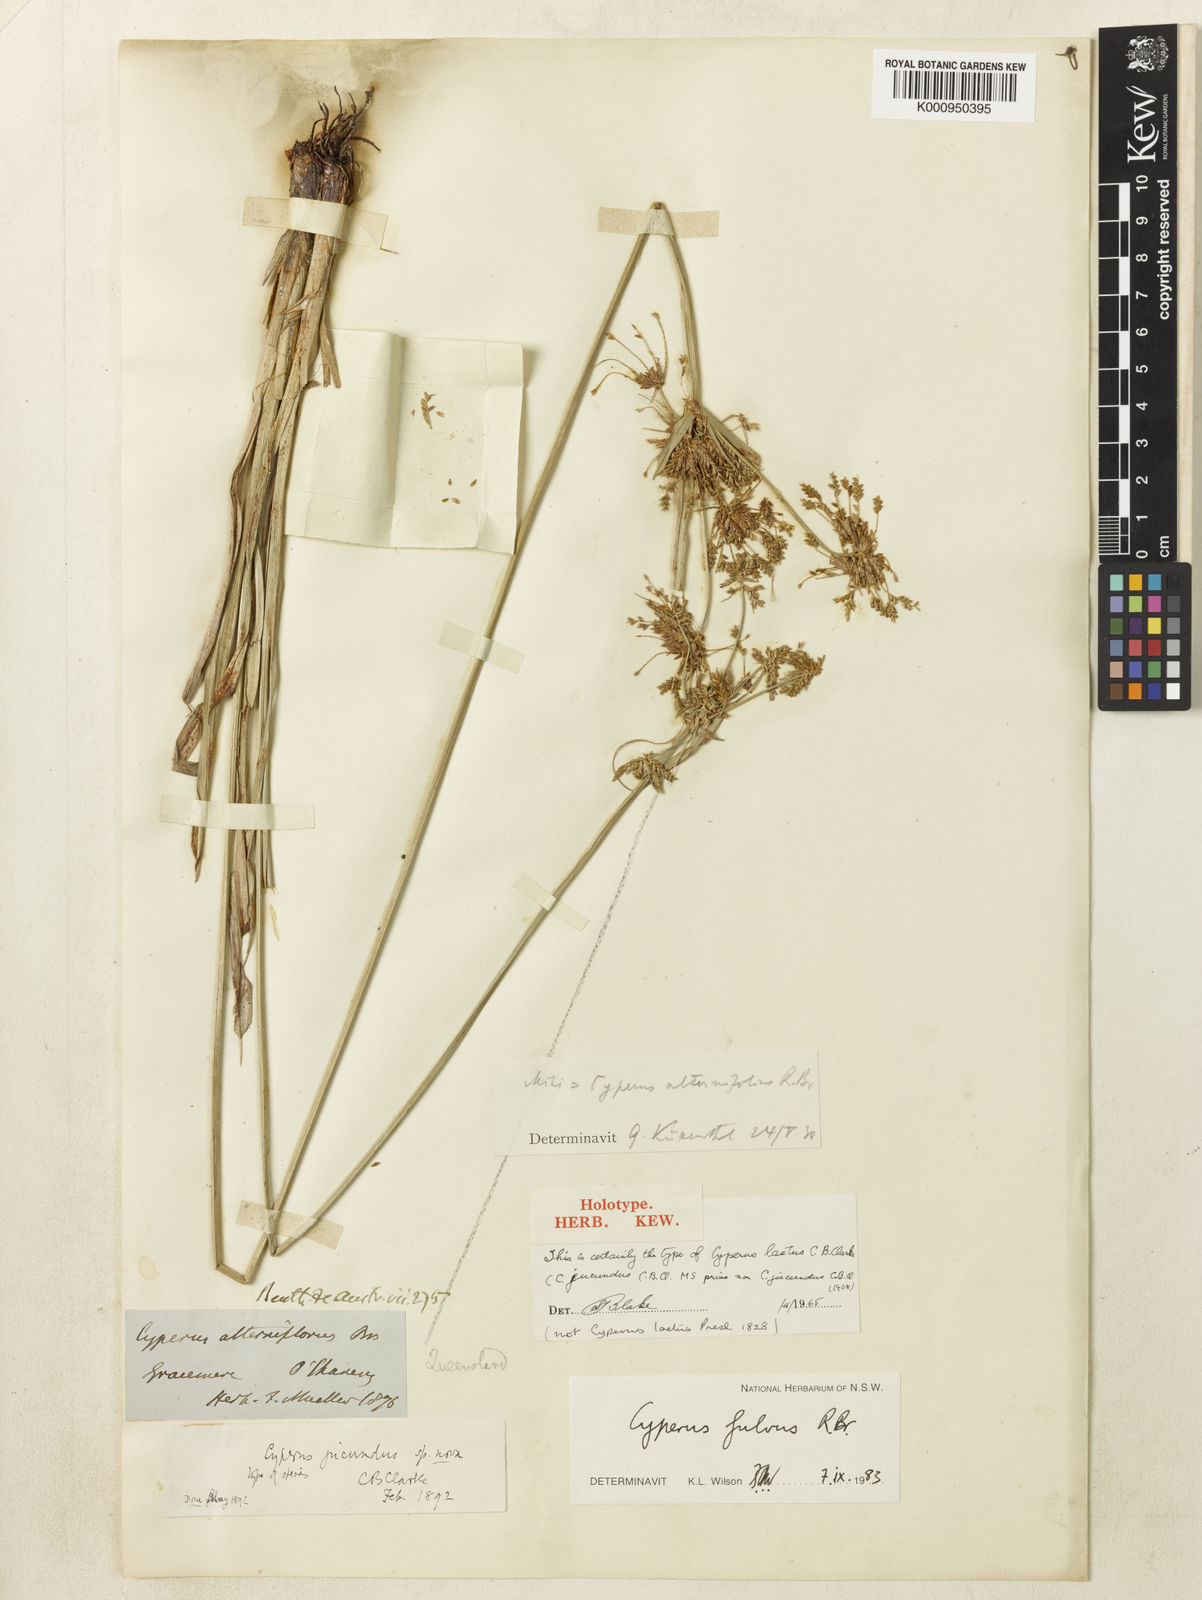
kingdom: Plantae
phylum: Tracheophyta
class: Liliopsida
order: Poales
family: Cyperaceae
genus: Cyperus
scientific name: Cyperus fulvus
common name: Sticky sedge
